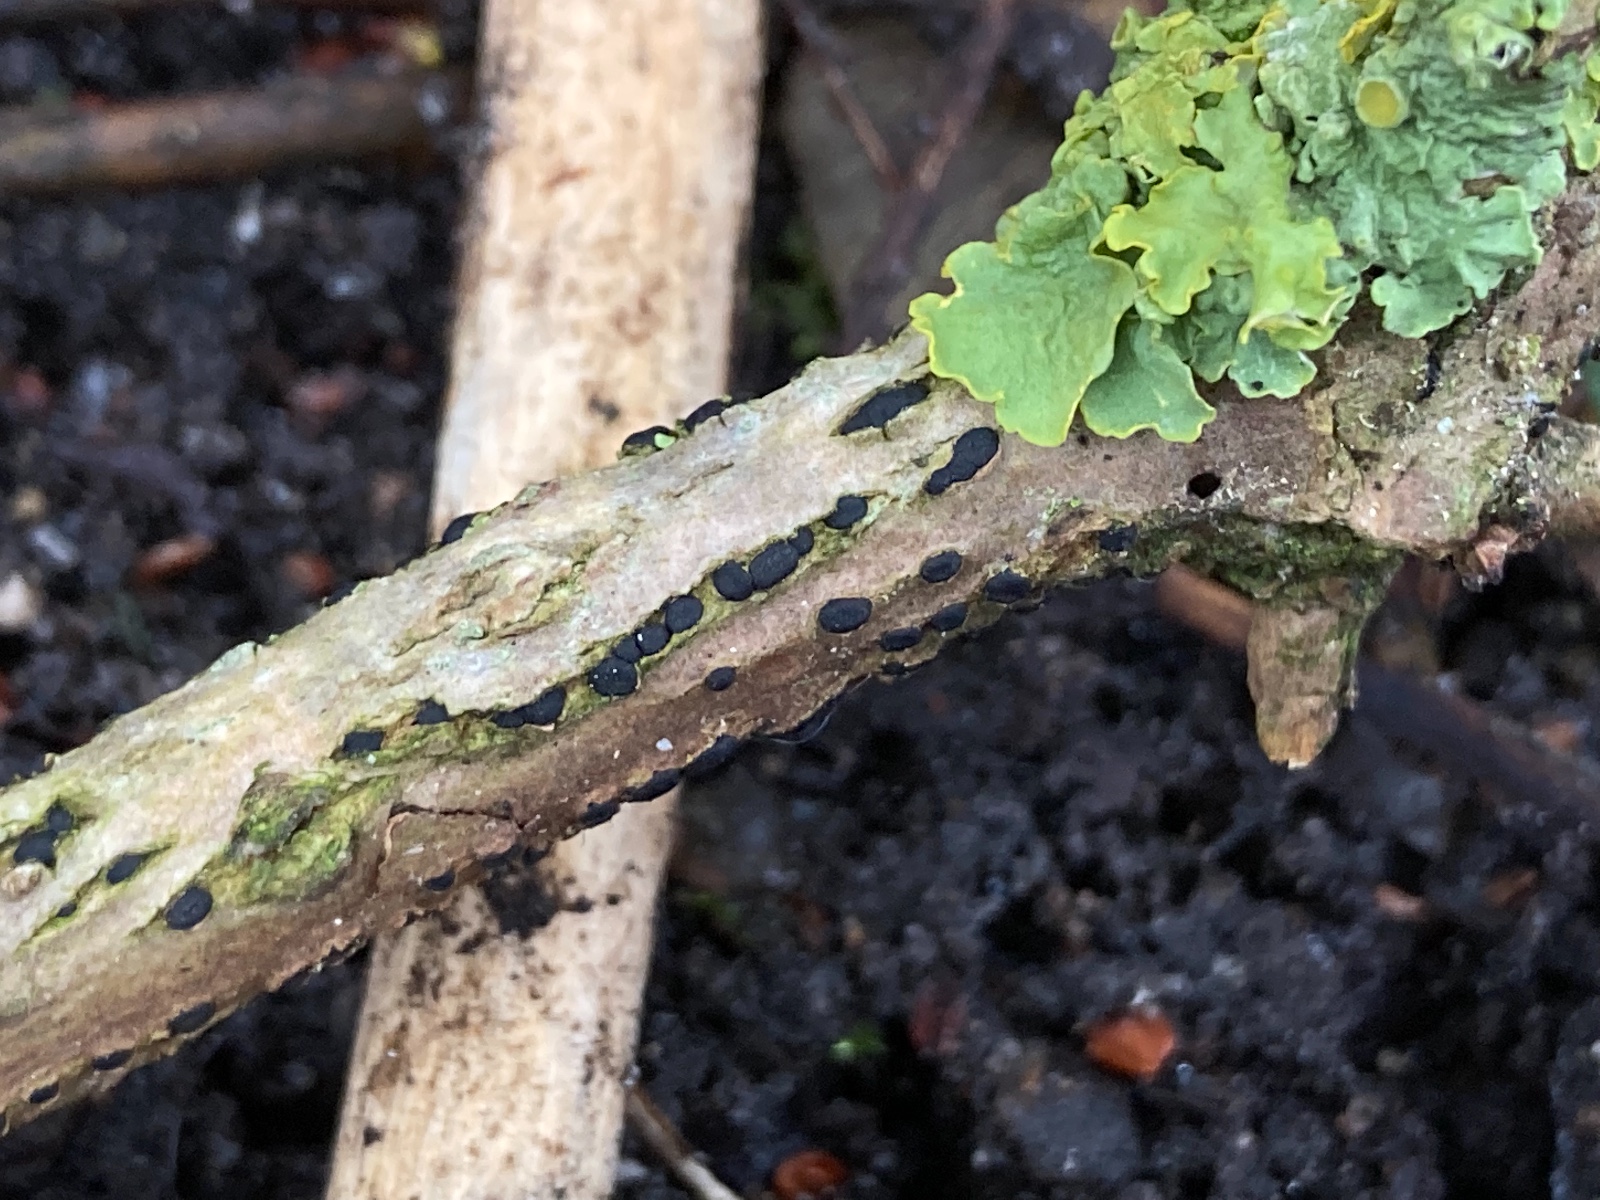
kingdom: Fungi
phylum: Ascomycota
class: Dothideomycetes
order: Dothideales
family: Dothideaceae
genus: Dothidea
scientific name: Dothidea sambuci
